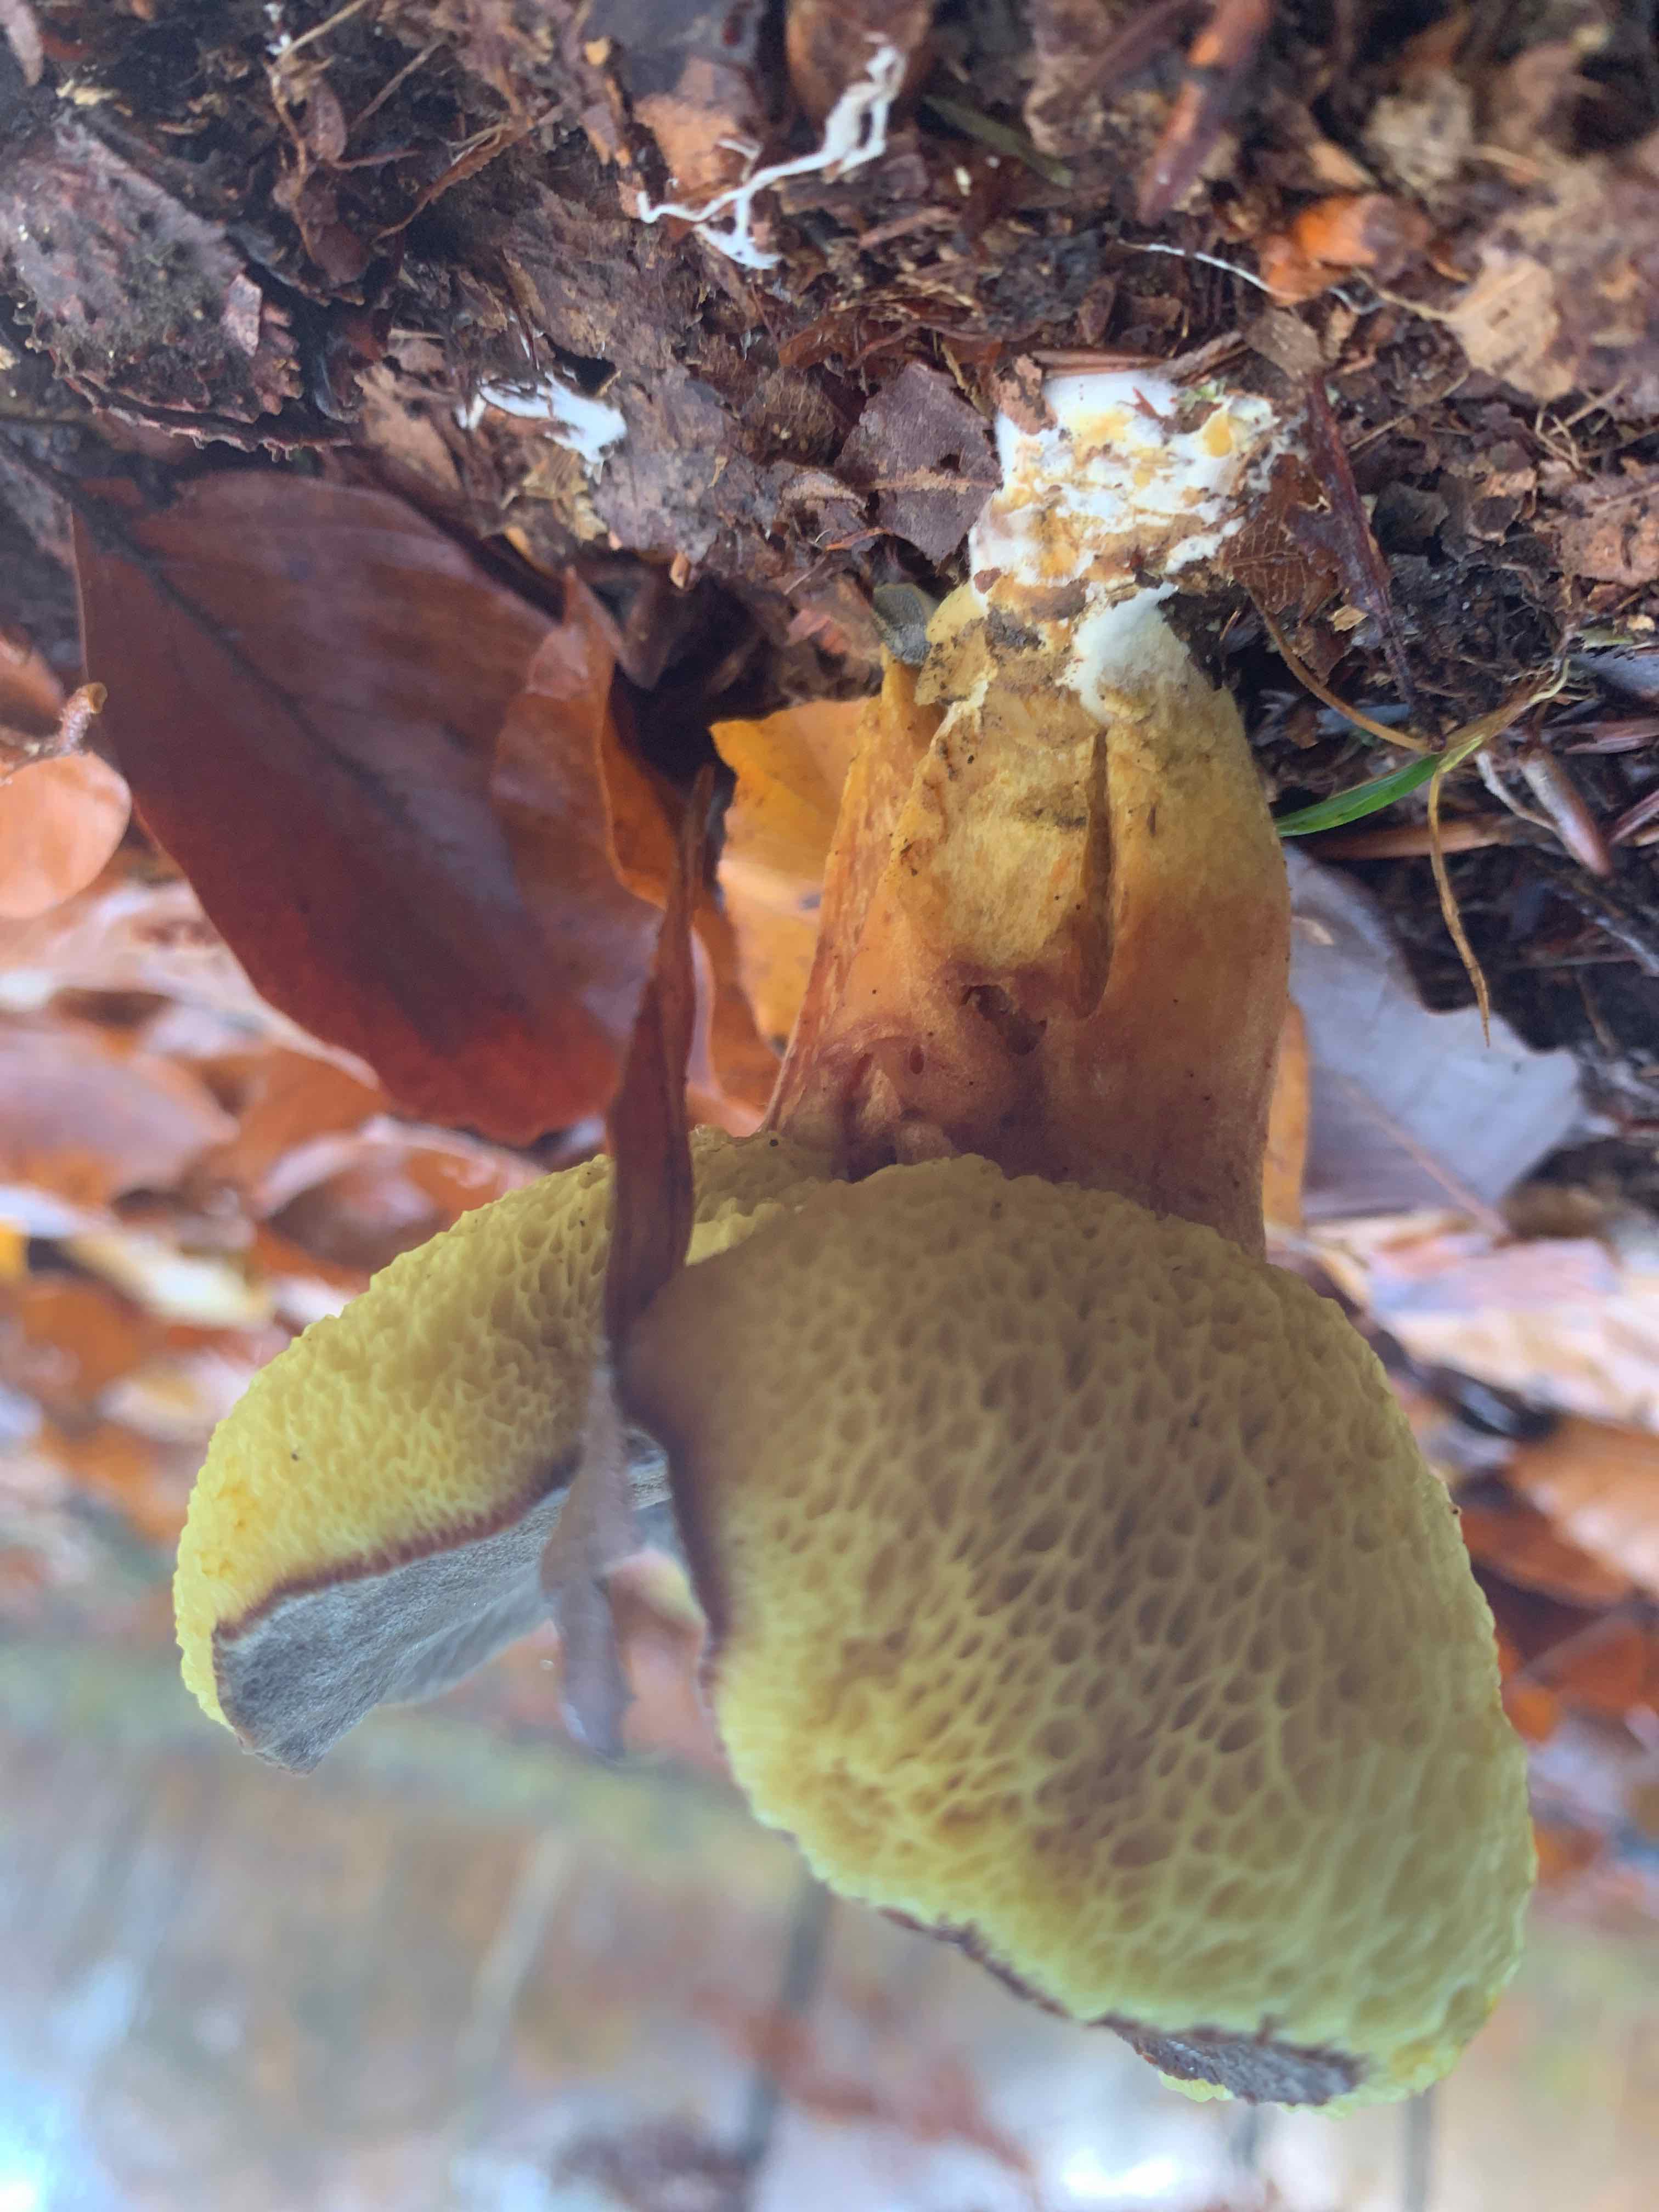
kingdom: Fungi
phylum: Basidiomycota
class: Agaricomycetes
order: Boletales
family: Boletaceae
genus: Xerocomellus
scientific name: Xerocomellus pruinatus
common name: dugget rørhat
